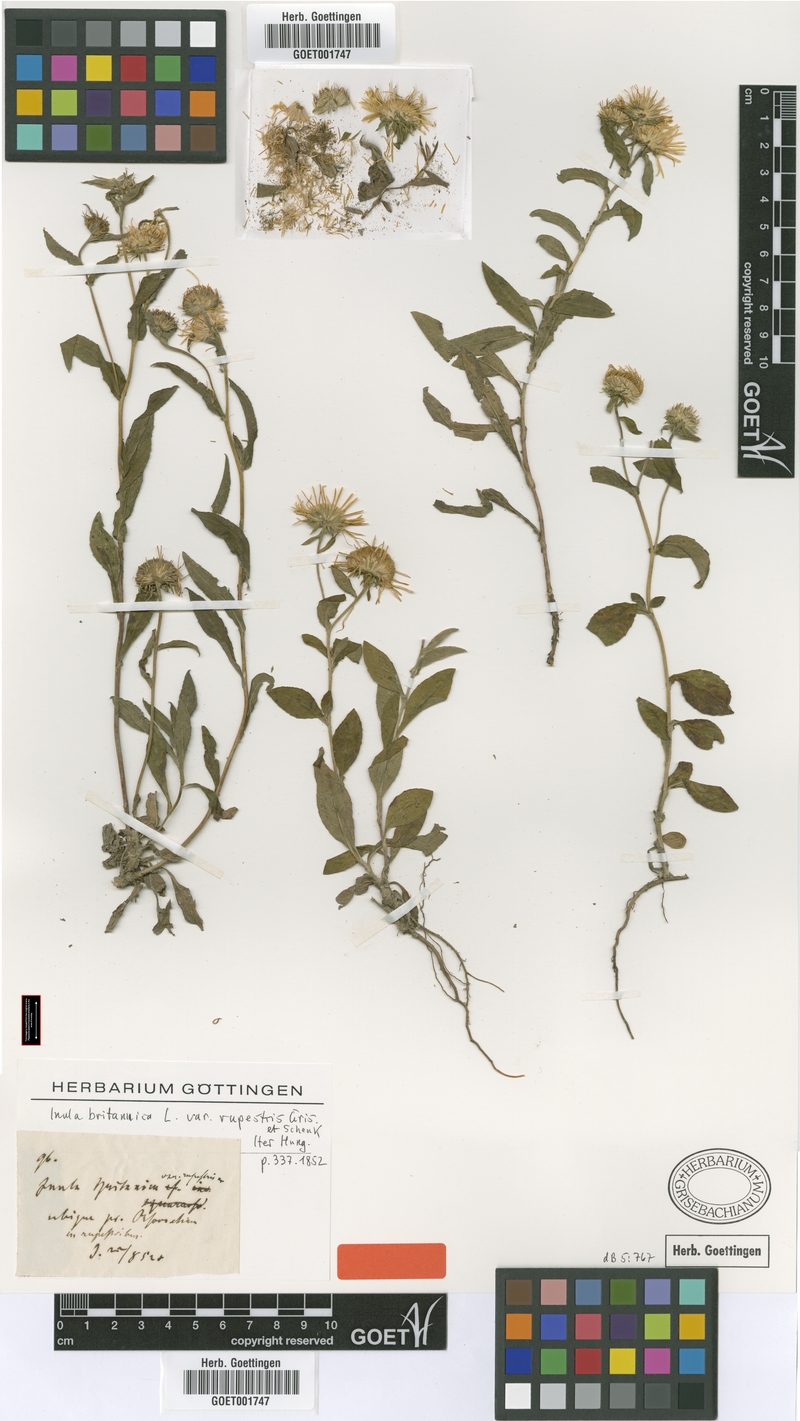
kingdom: Plantae
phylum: Tracheophyta
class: Magnoliopsida
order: Asterales
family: Asteraceae
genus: Inula
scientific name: Inula britannica
